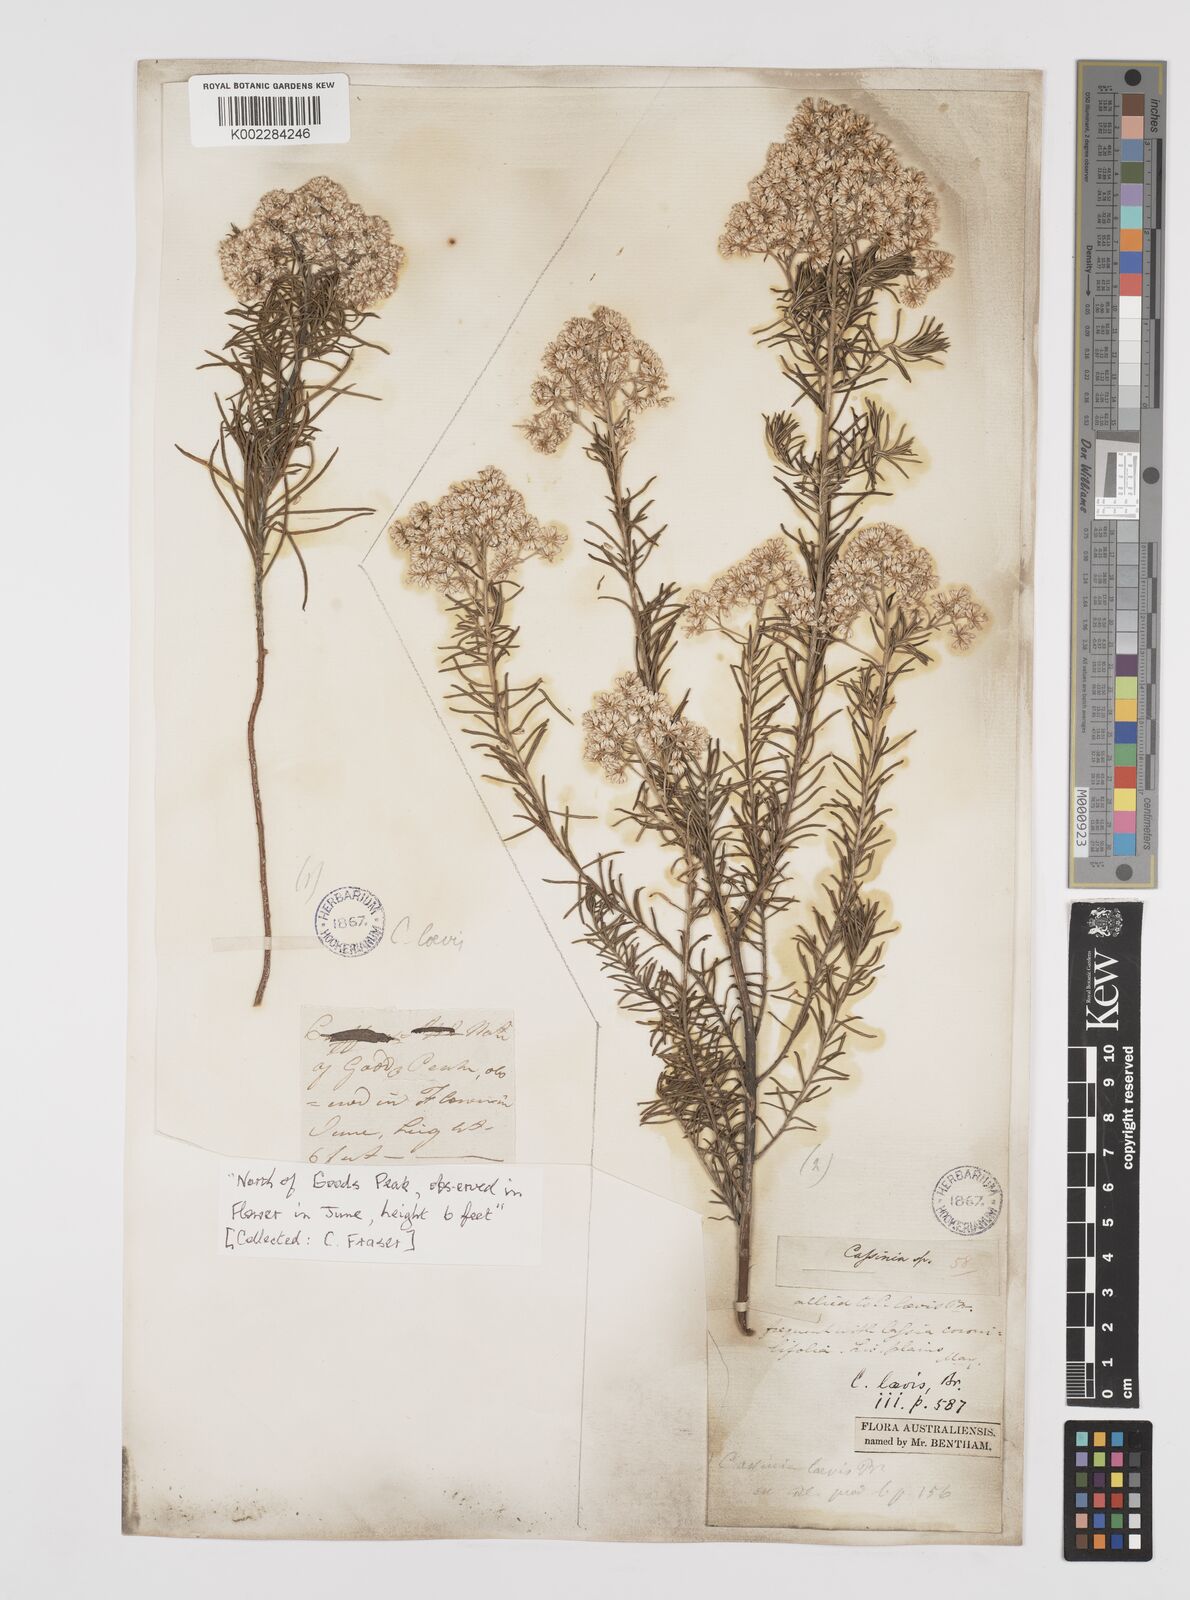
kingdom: Plantae
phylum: Tracheophyta
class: Magnoliopsida
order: Asterales
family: Asteraceae
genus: Cassinia
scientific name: Cassinia laevis
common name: Coughbush
